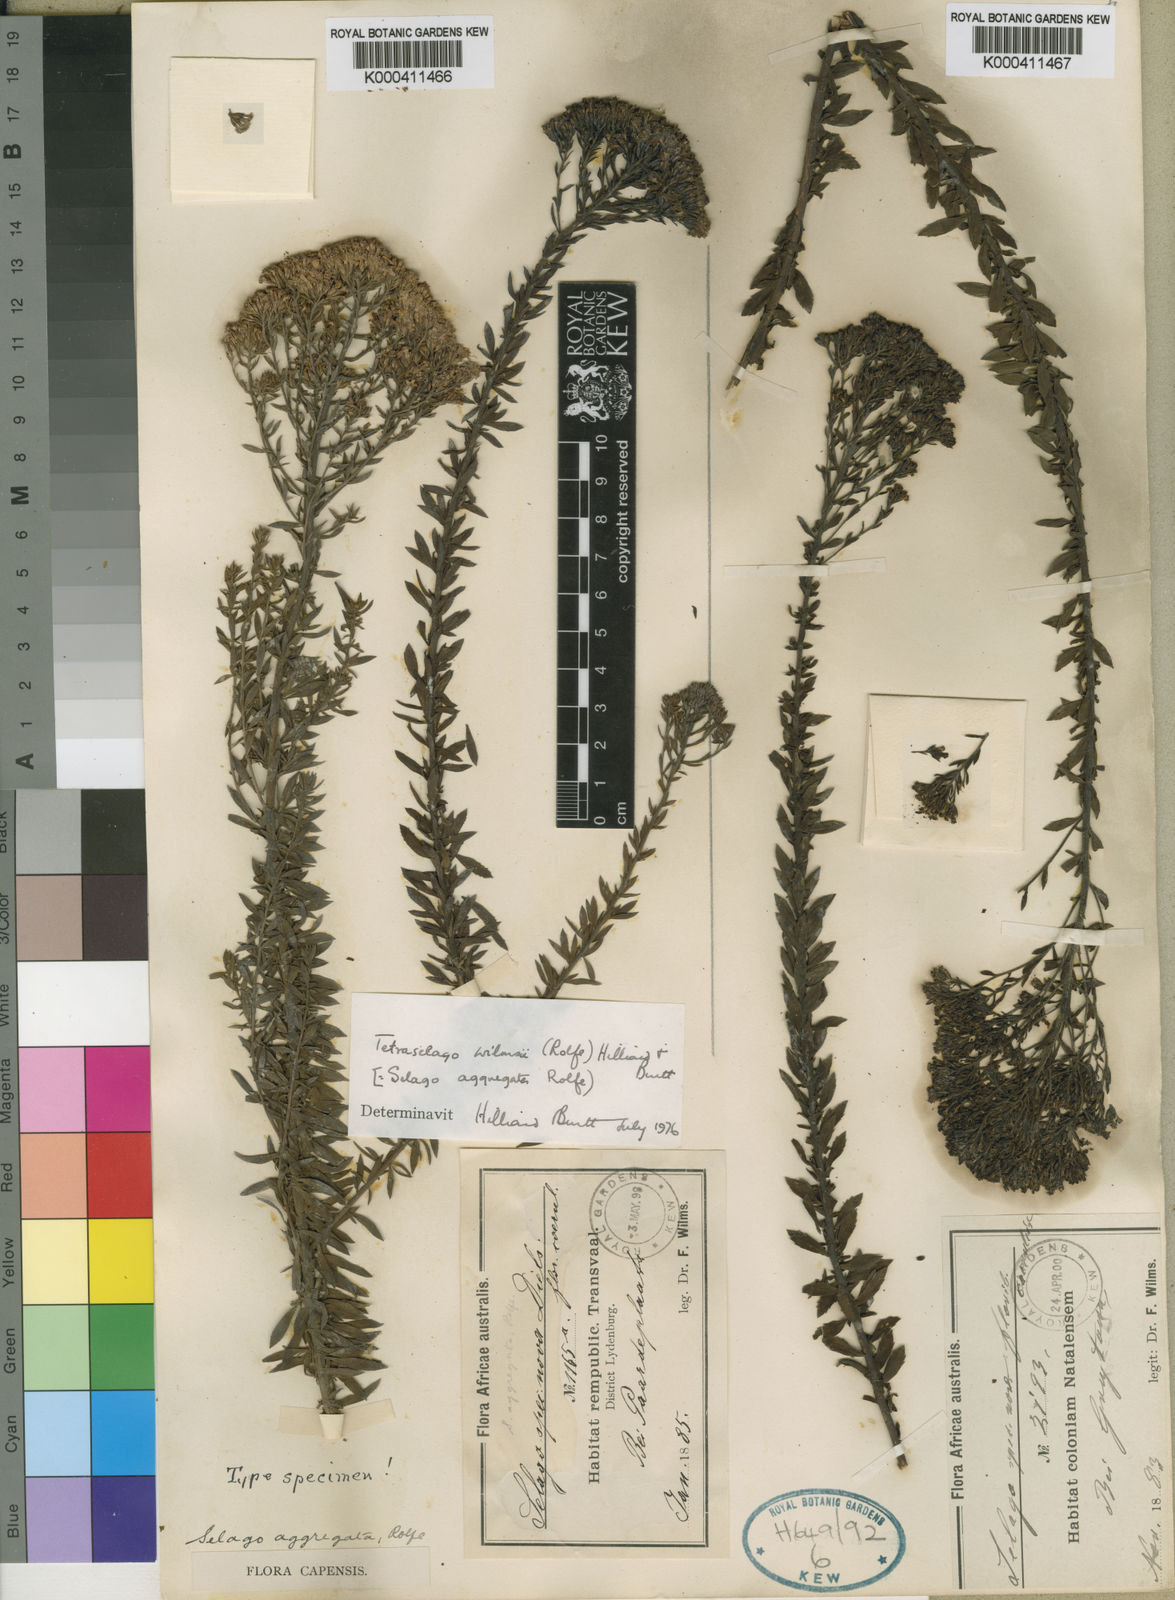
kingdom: Plantae
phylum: Tracheophyta
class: Magnoliopsida
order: Lamiales
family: Scrophulariaceae
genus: Tetraselago
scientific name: Tetraselago wilmsii
